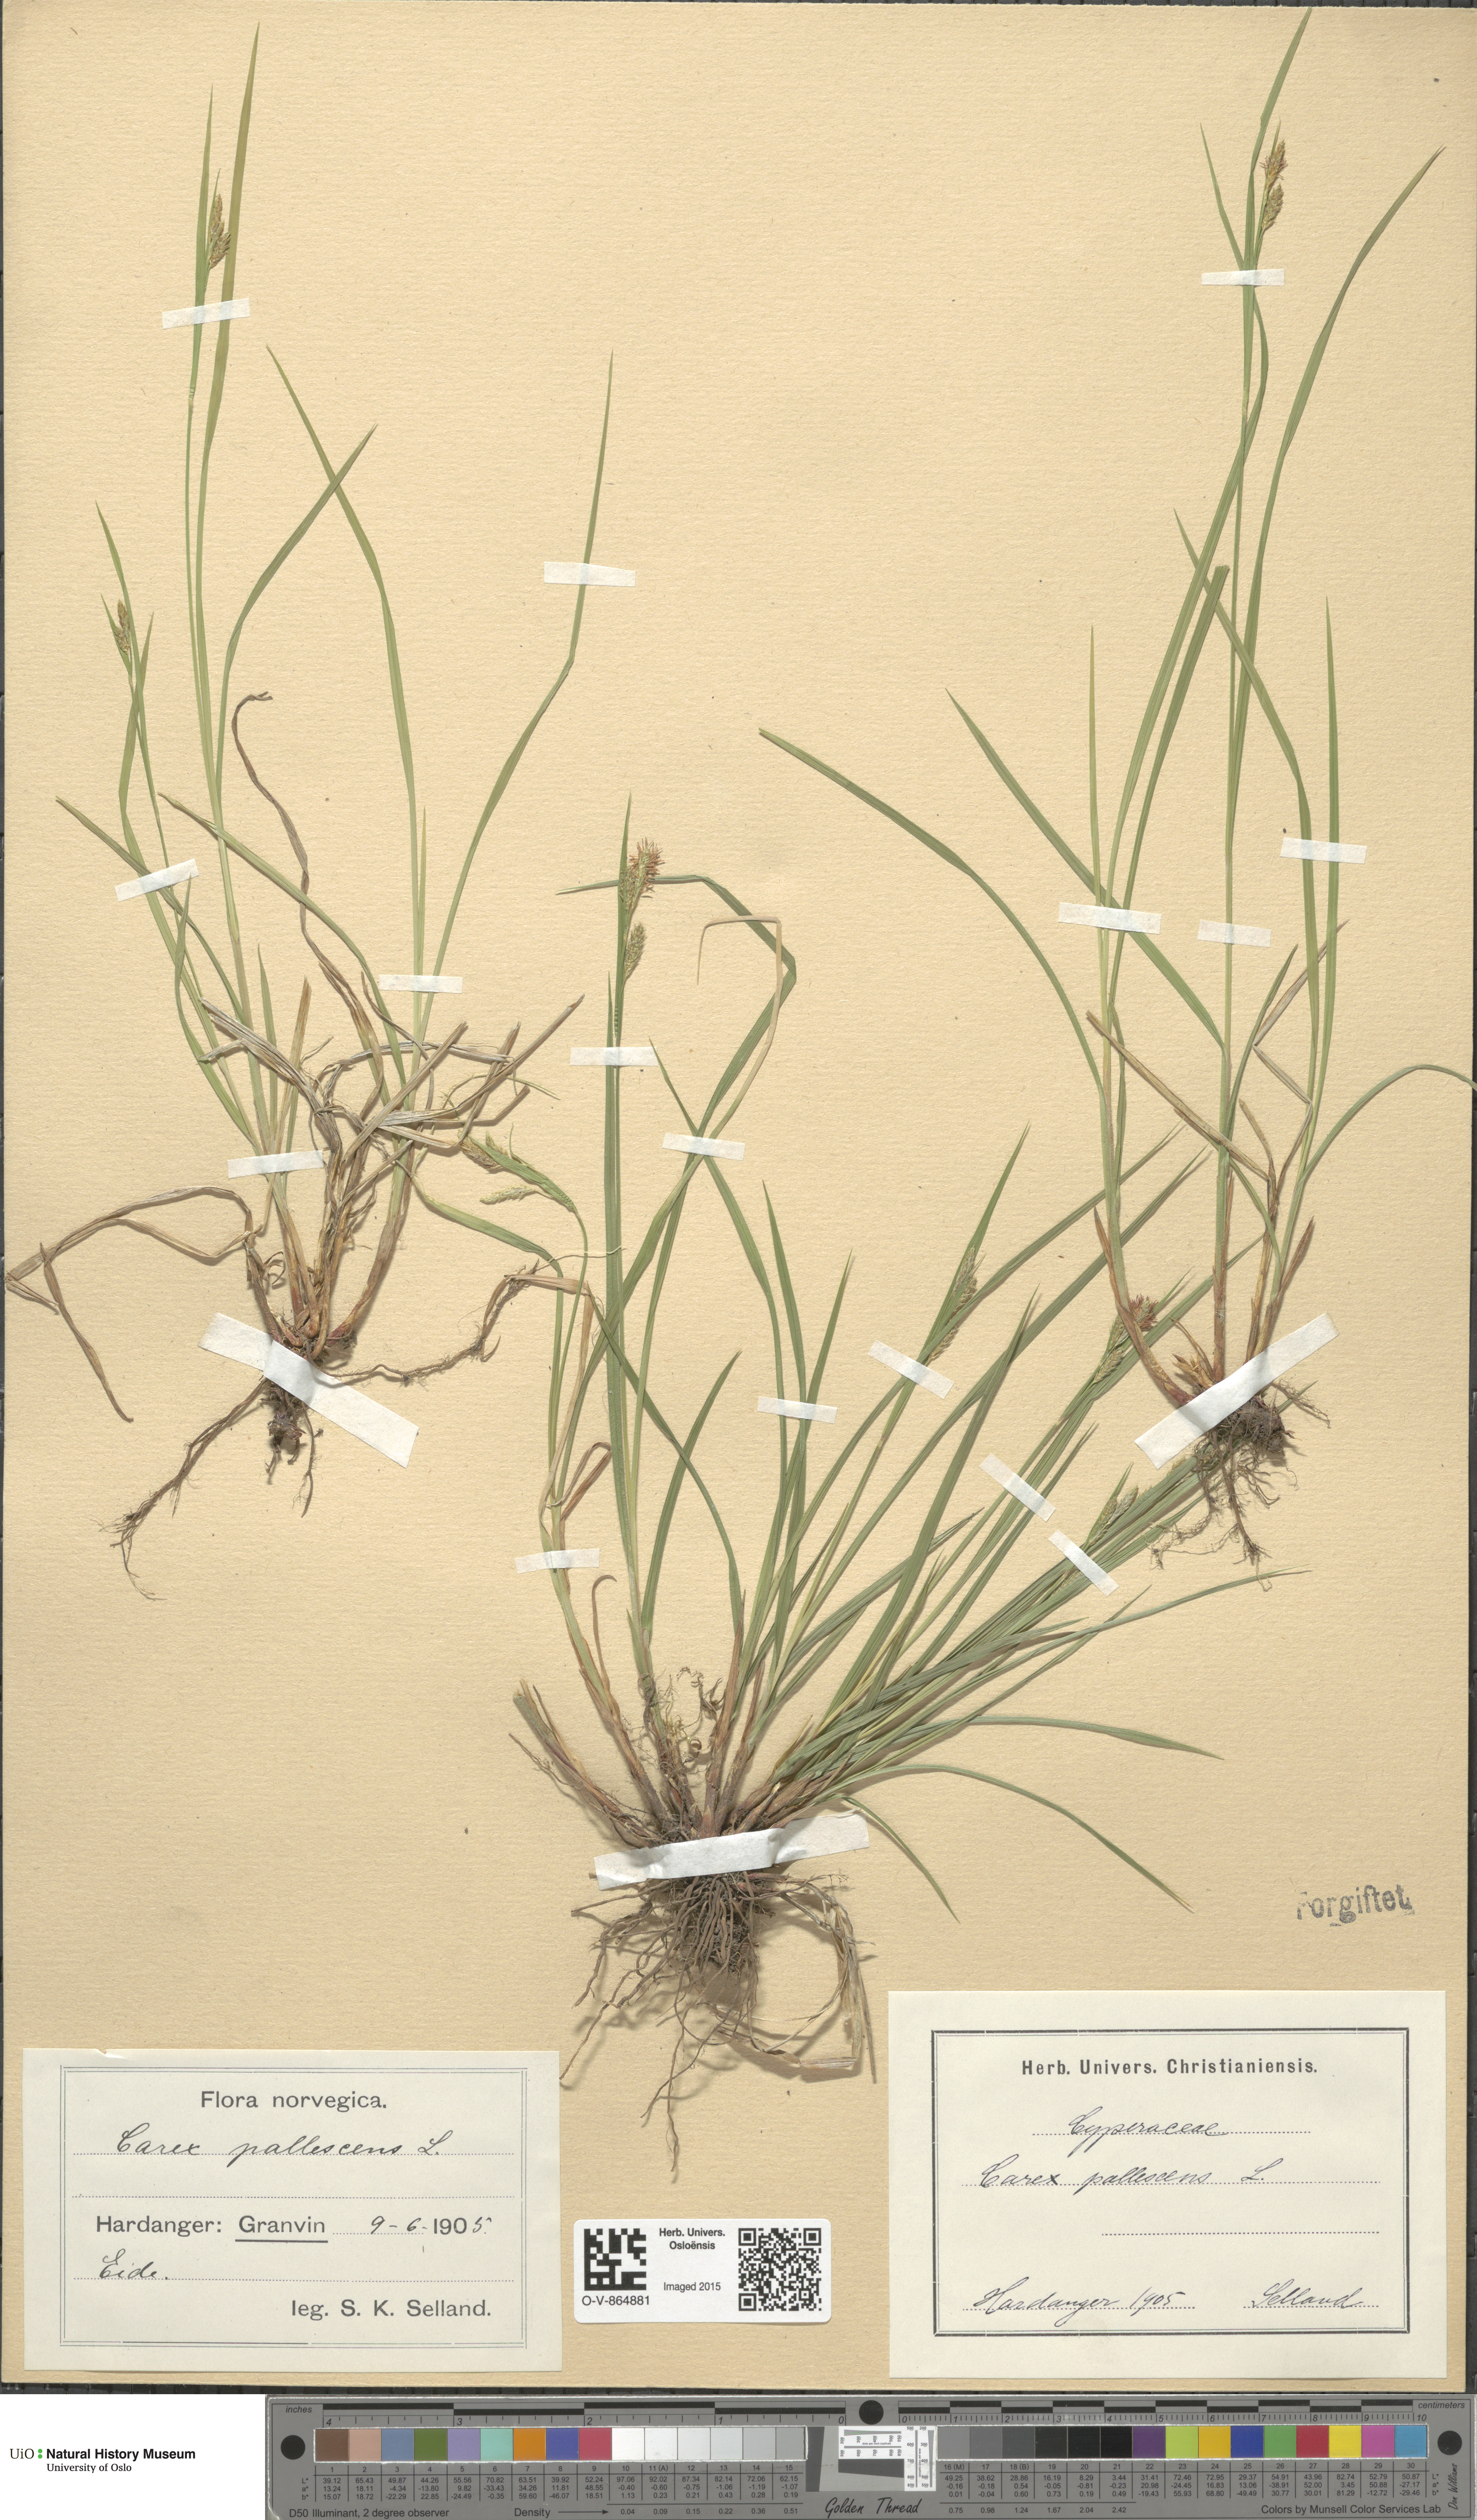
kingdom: Plantae
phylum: Tracheophyta
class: Liliopsida
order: Poales
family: Cyperaceae
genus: Carex
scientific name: Carex pallescens
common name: Pale sedge
